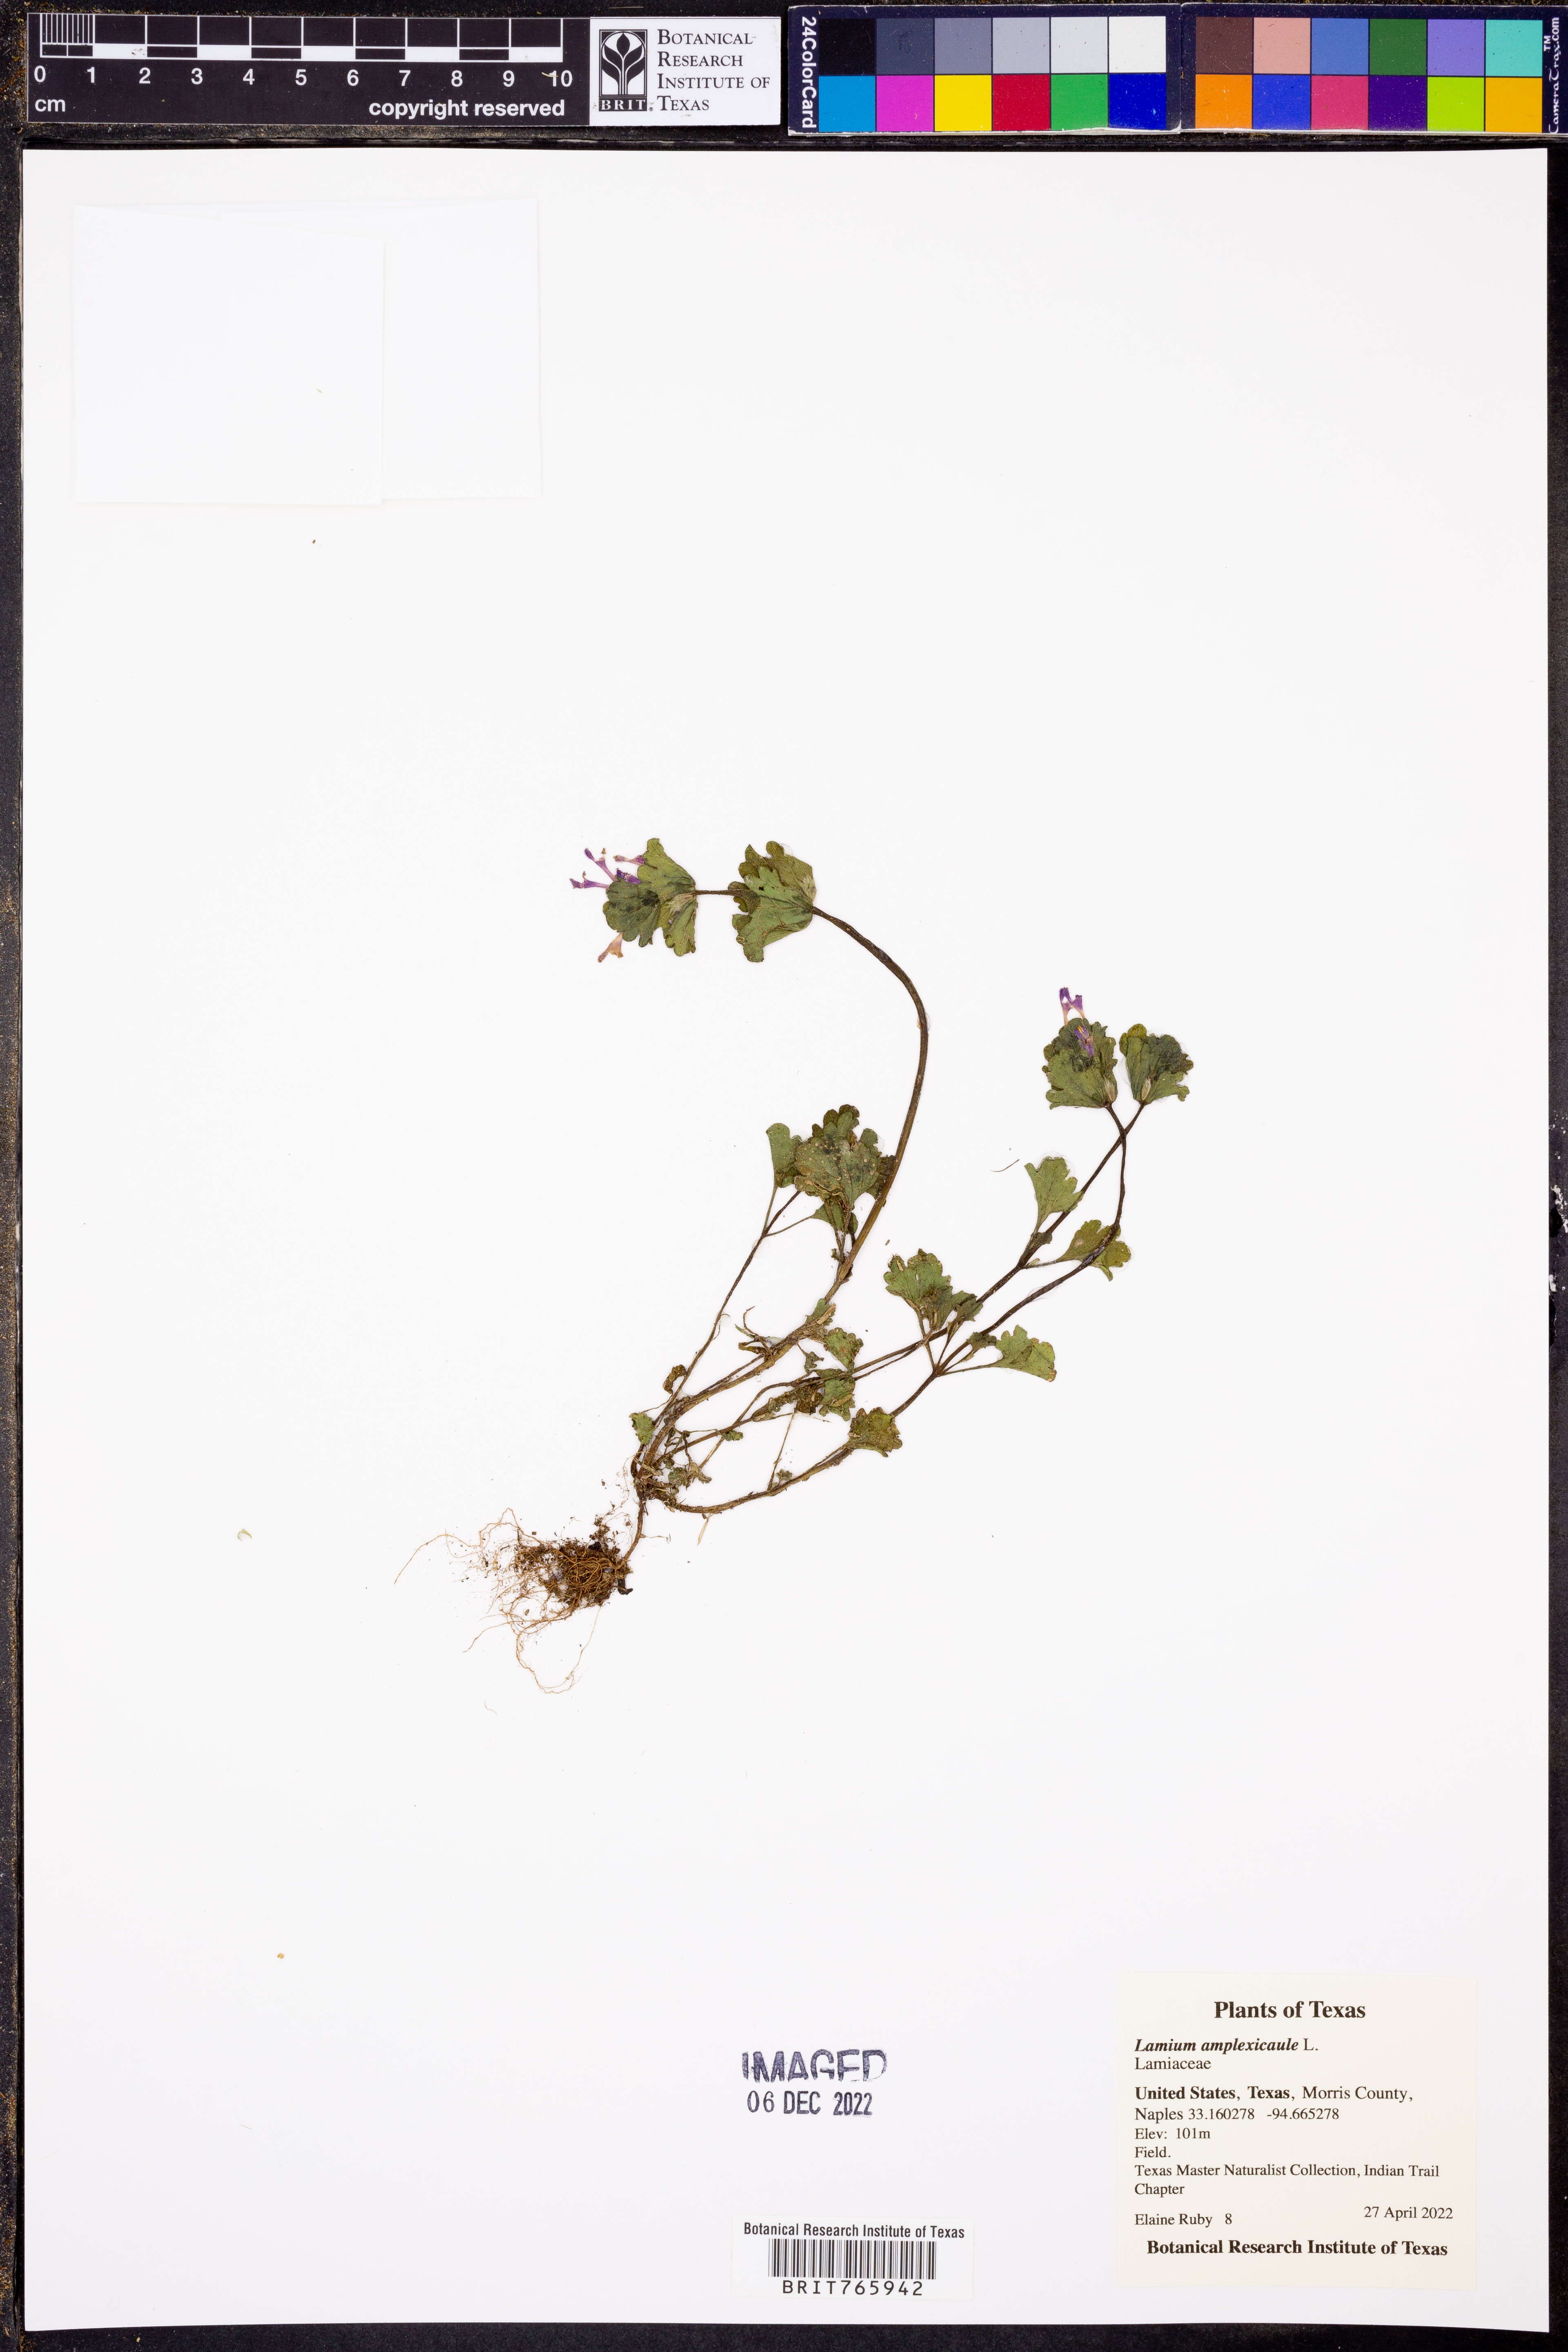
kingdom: Plantae
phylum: Tracheophyta
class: Magnoliopsida
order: Lamiales
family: Lamiaceae
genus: Lamium
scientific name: Lamium amplexicaule
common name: Henbit dead-nettle
